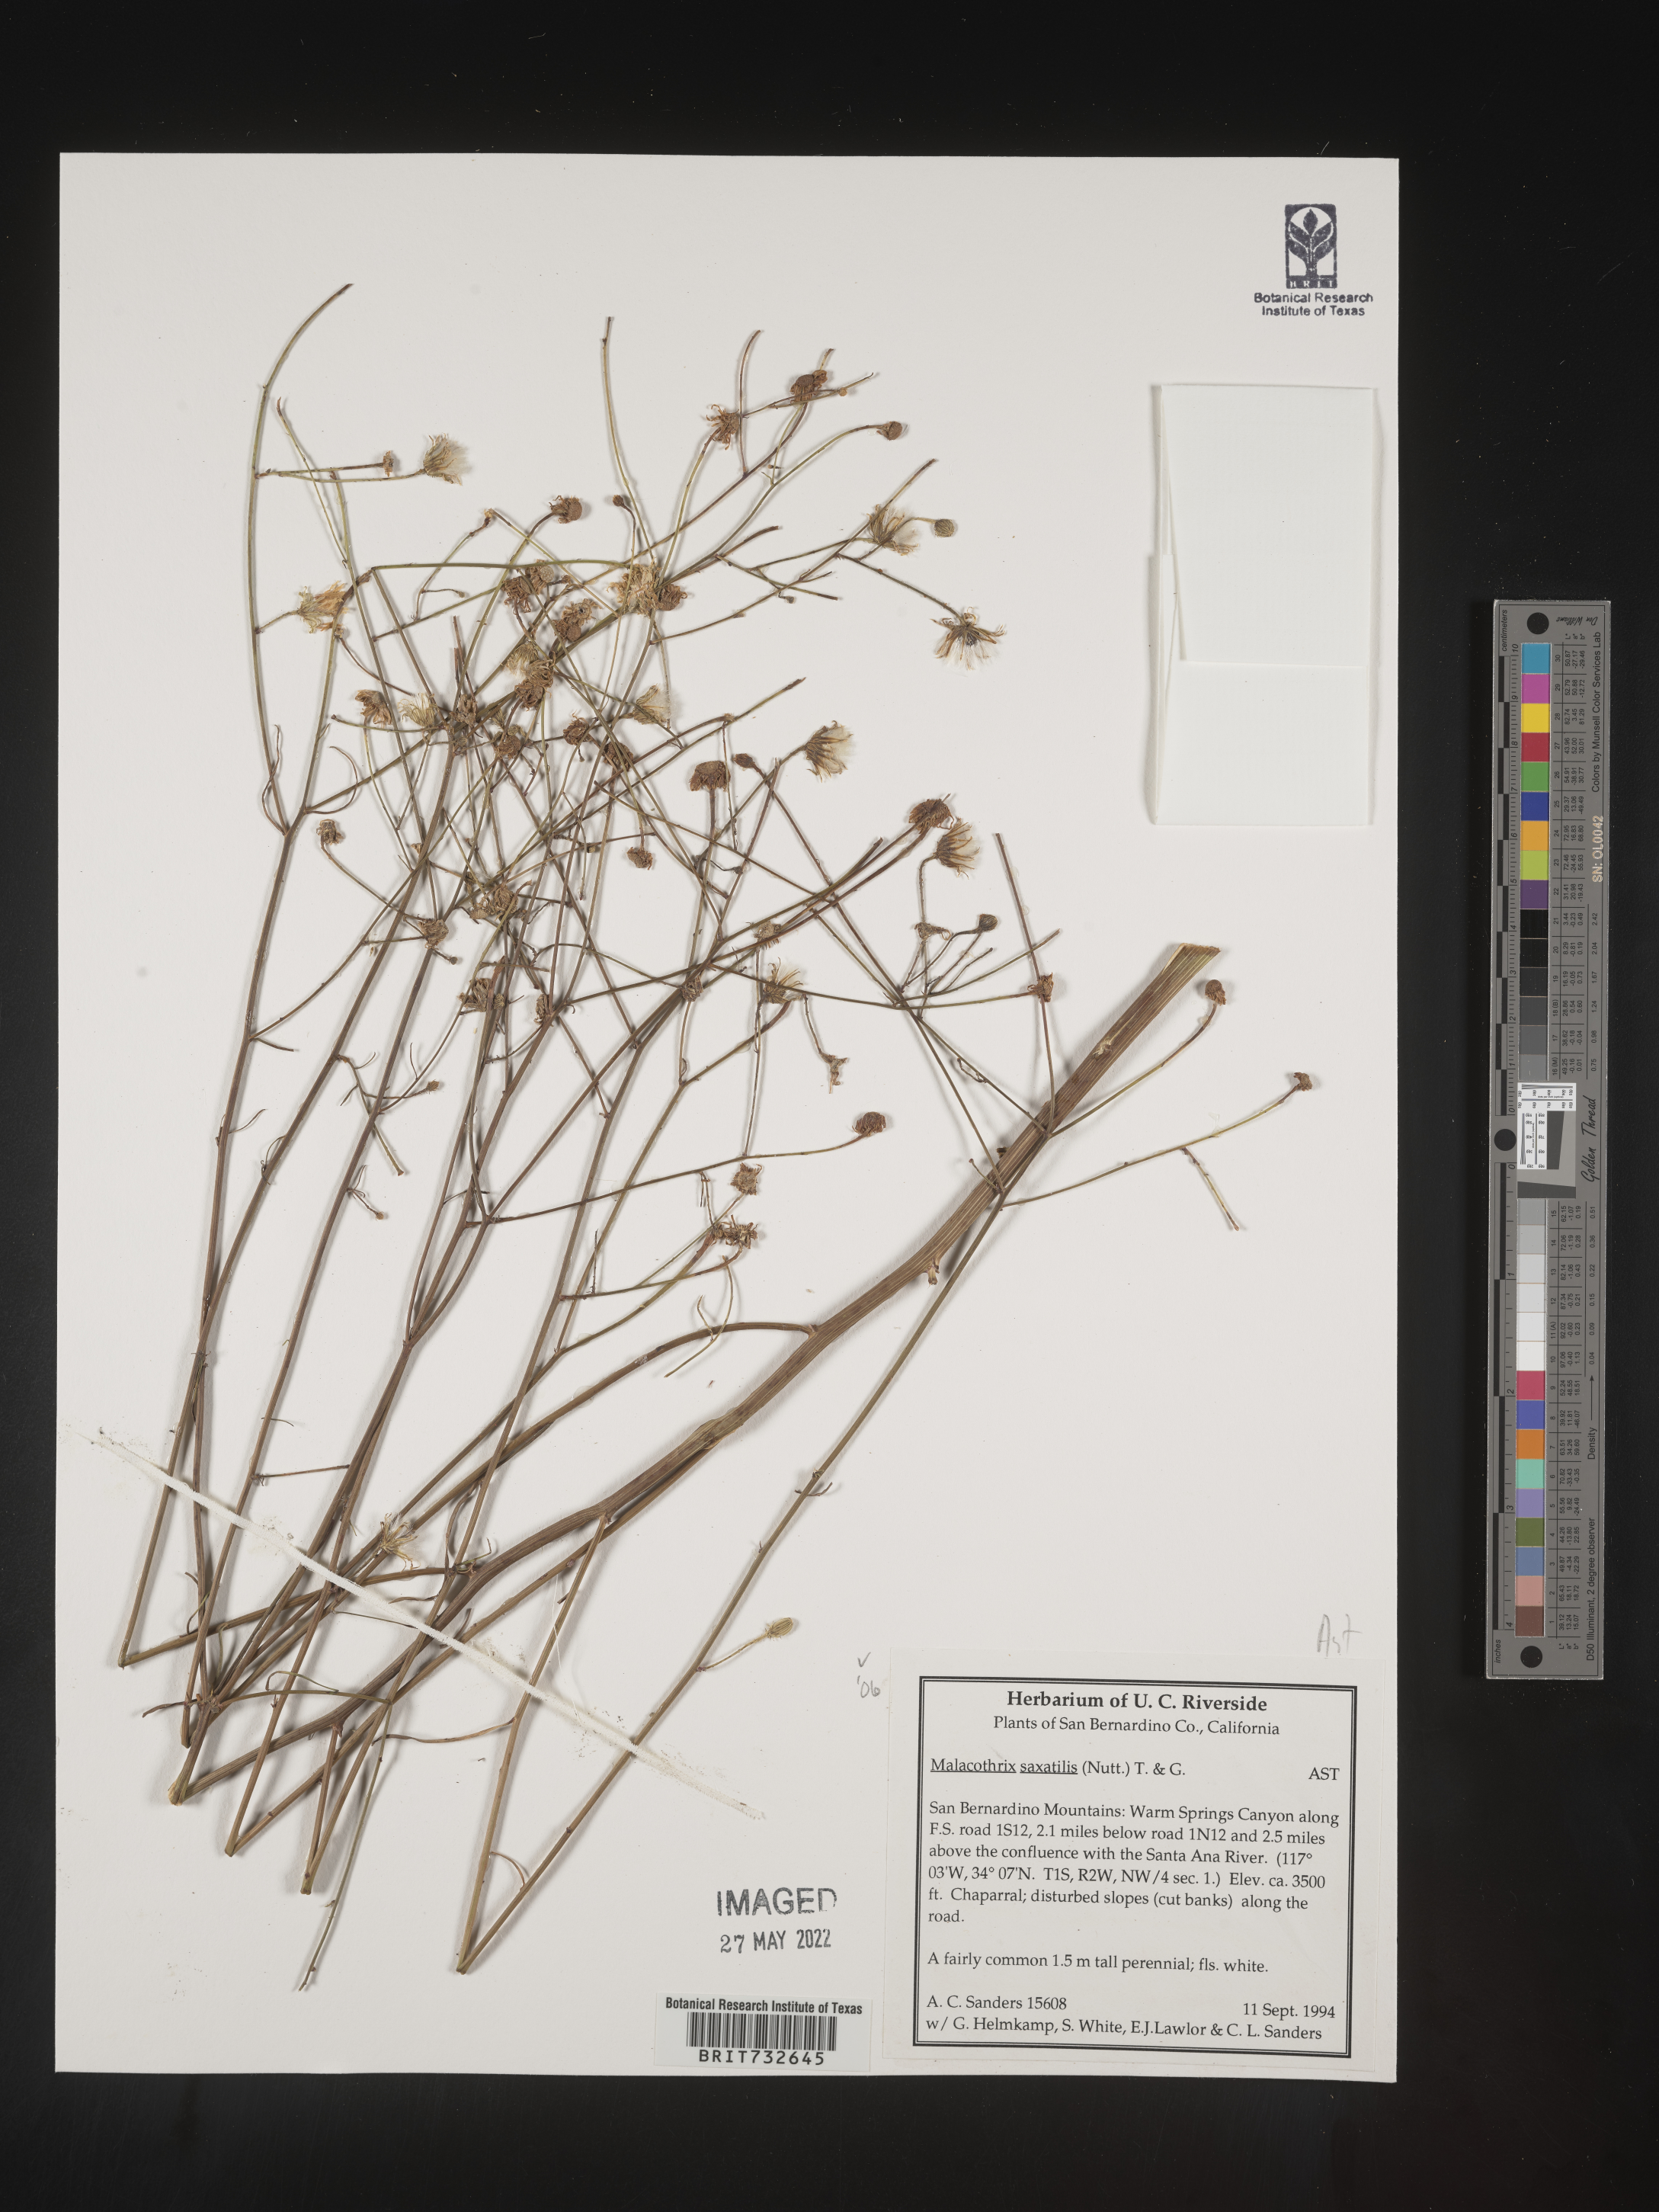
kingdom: Plantae
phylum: Tracheophyta
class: Magnoliopsida
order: Asterales
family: Asteraceae
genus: Malacothrix
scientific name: Malacothrix saxatilis
